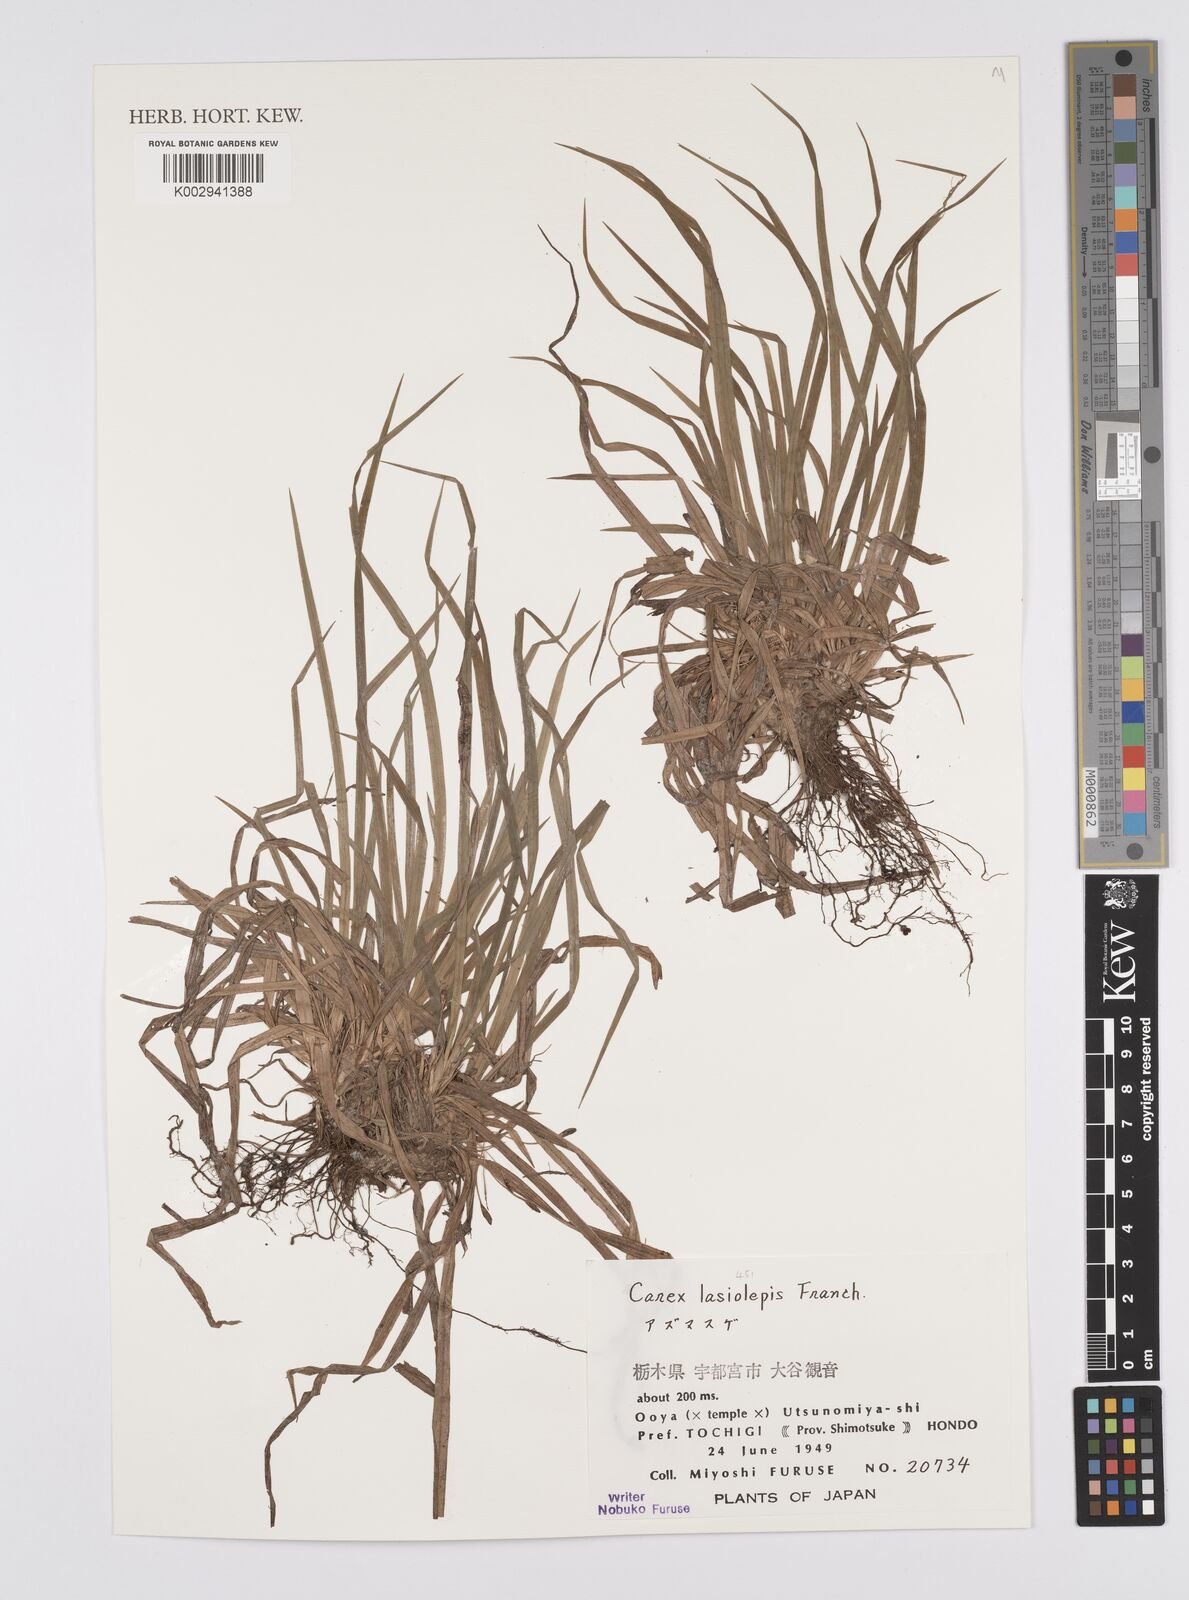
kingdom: Plantae
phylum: Tracheophyta
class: Liliopsida
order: Poales
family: Cyperaceae
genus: Carex
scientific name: Carex lasiolepis
